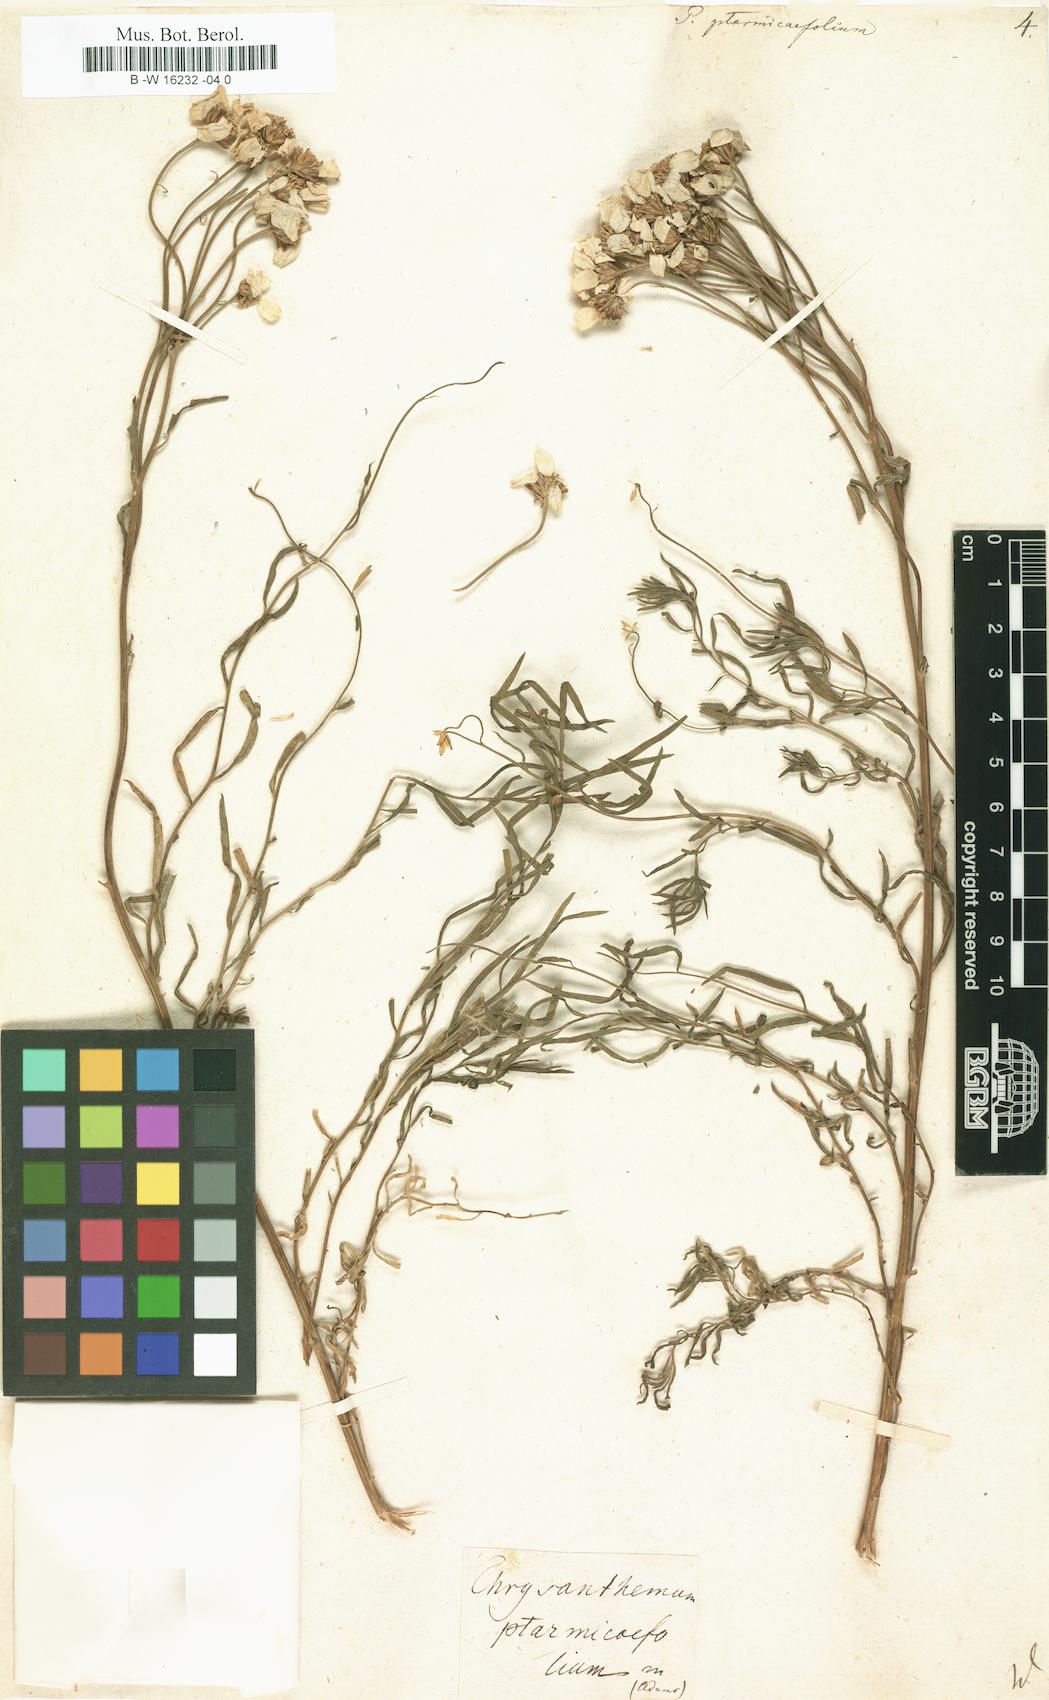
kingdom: Plantae
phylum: Tracheophyta
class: Magnoliopsida
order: Asterales
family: Asteraceae
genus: Achillea
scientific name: Achillea ptarmicifolia
